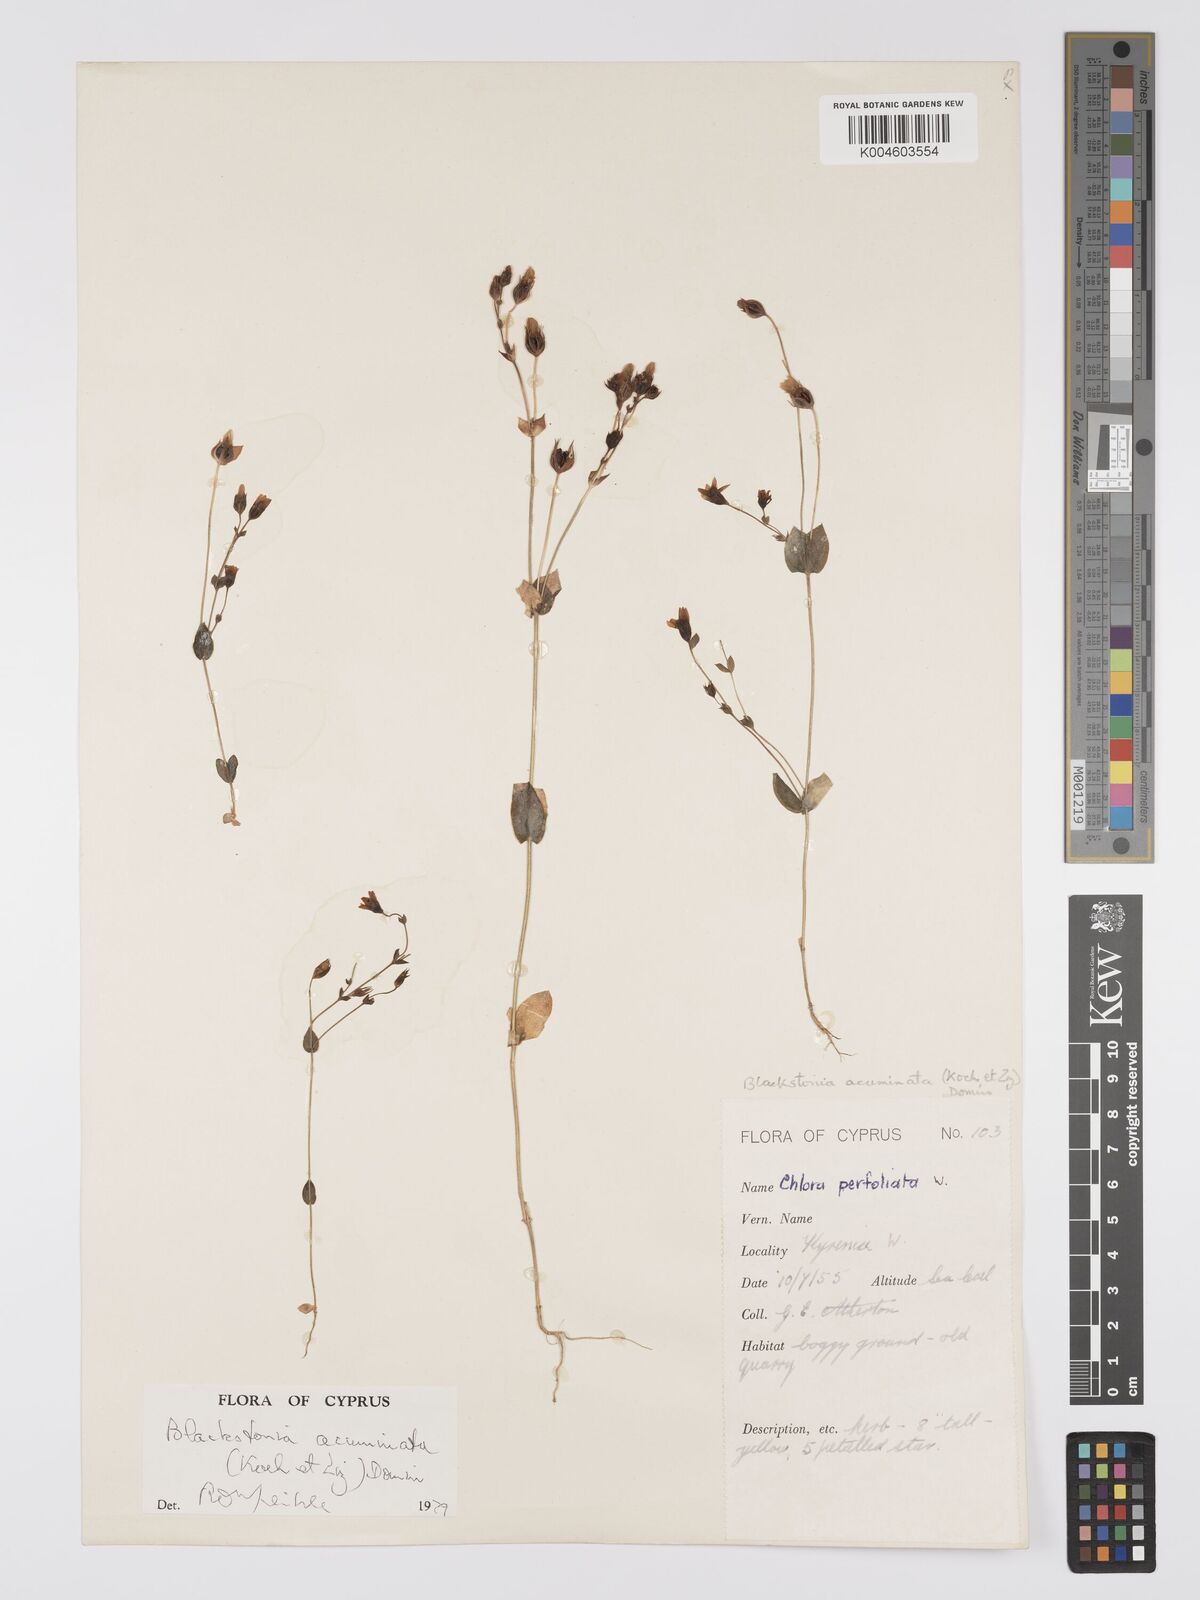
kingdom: Plantae
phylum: Tracheophyta
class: Magnoliopsida
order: Gentianales
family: Gentianaceae
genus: Blackstonia
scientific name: Blackstonia acuminata
